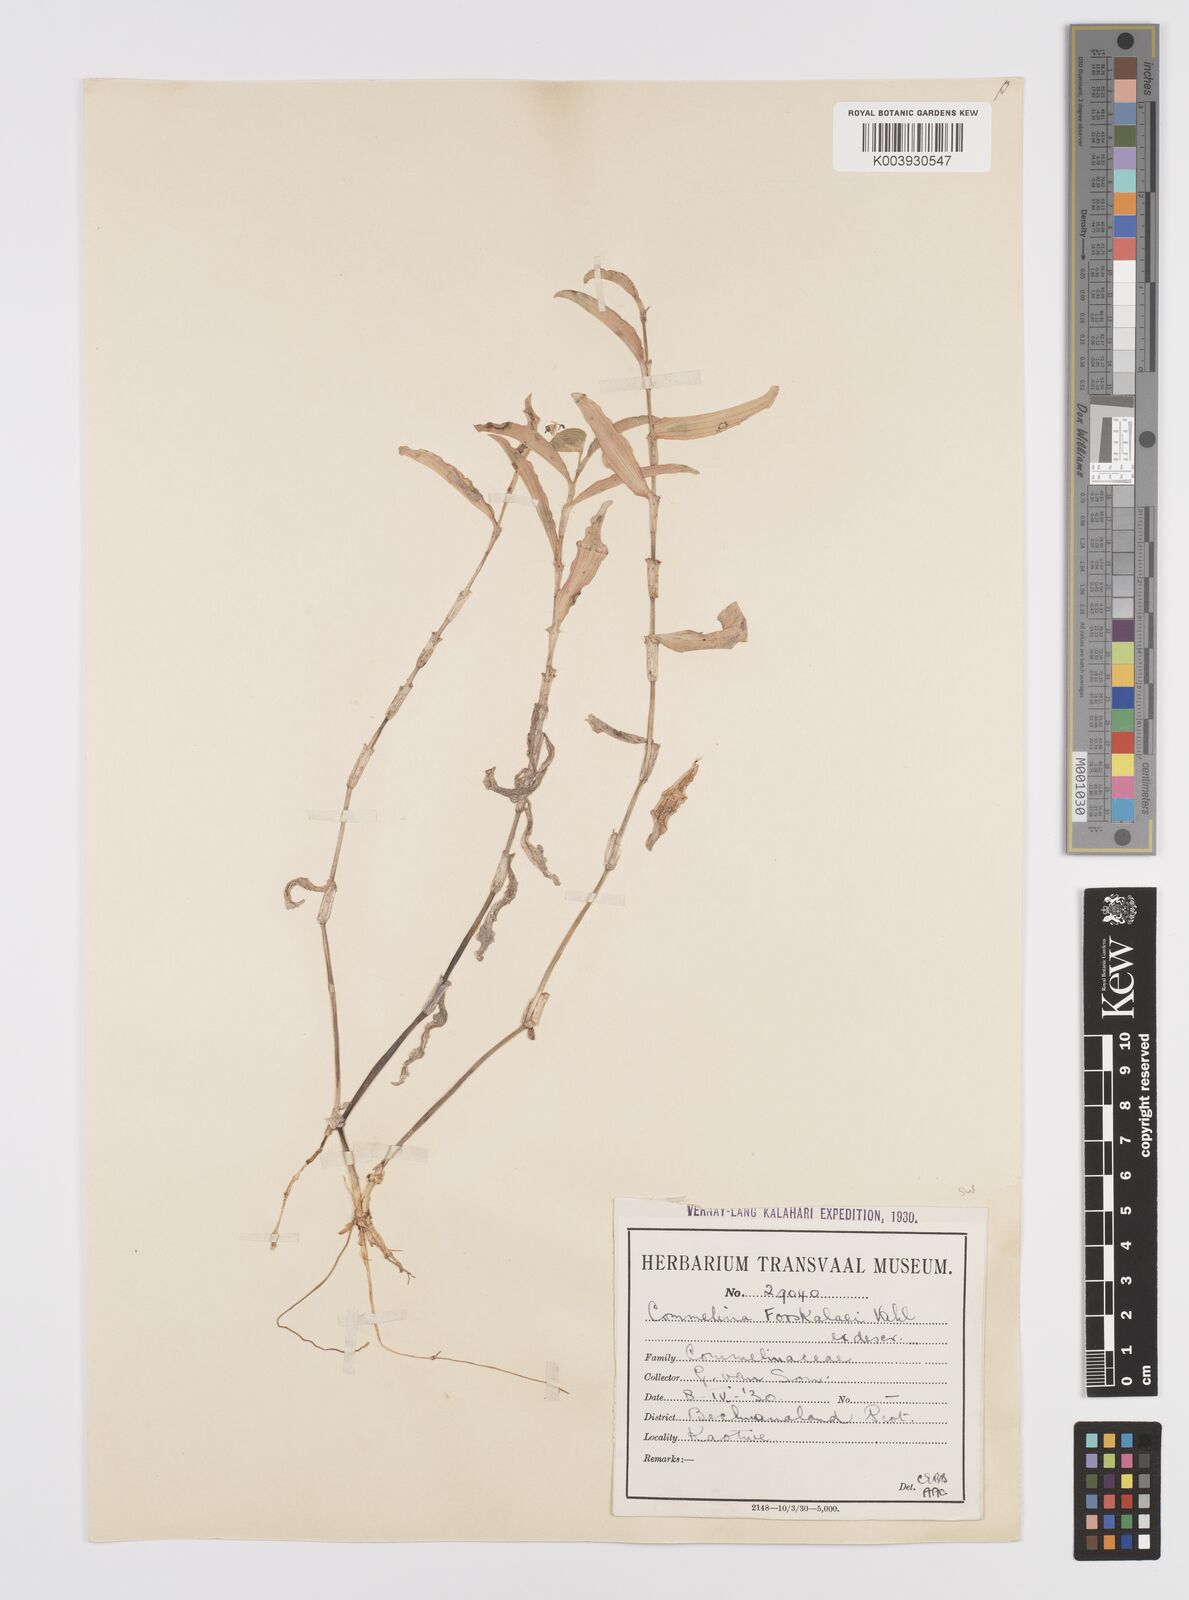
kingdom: Plantae
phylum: Tracheophyta
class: Liliopsida
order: Commelinales
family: Commelinaceae
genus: Commelina
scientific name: Commelina forskaolii
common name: Rat's ear
